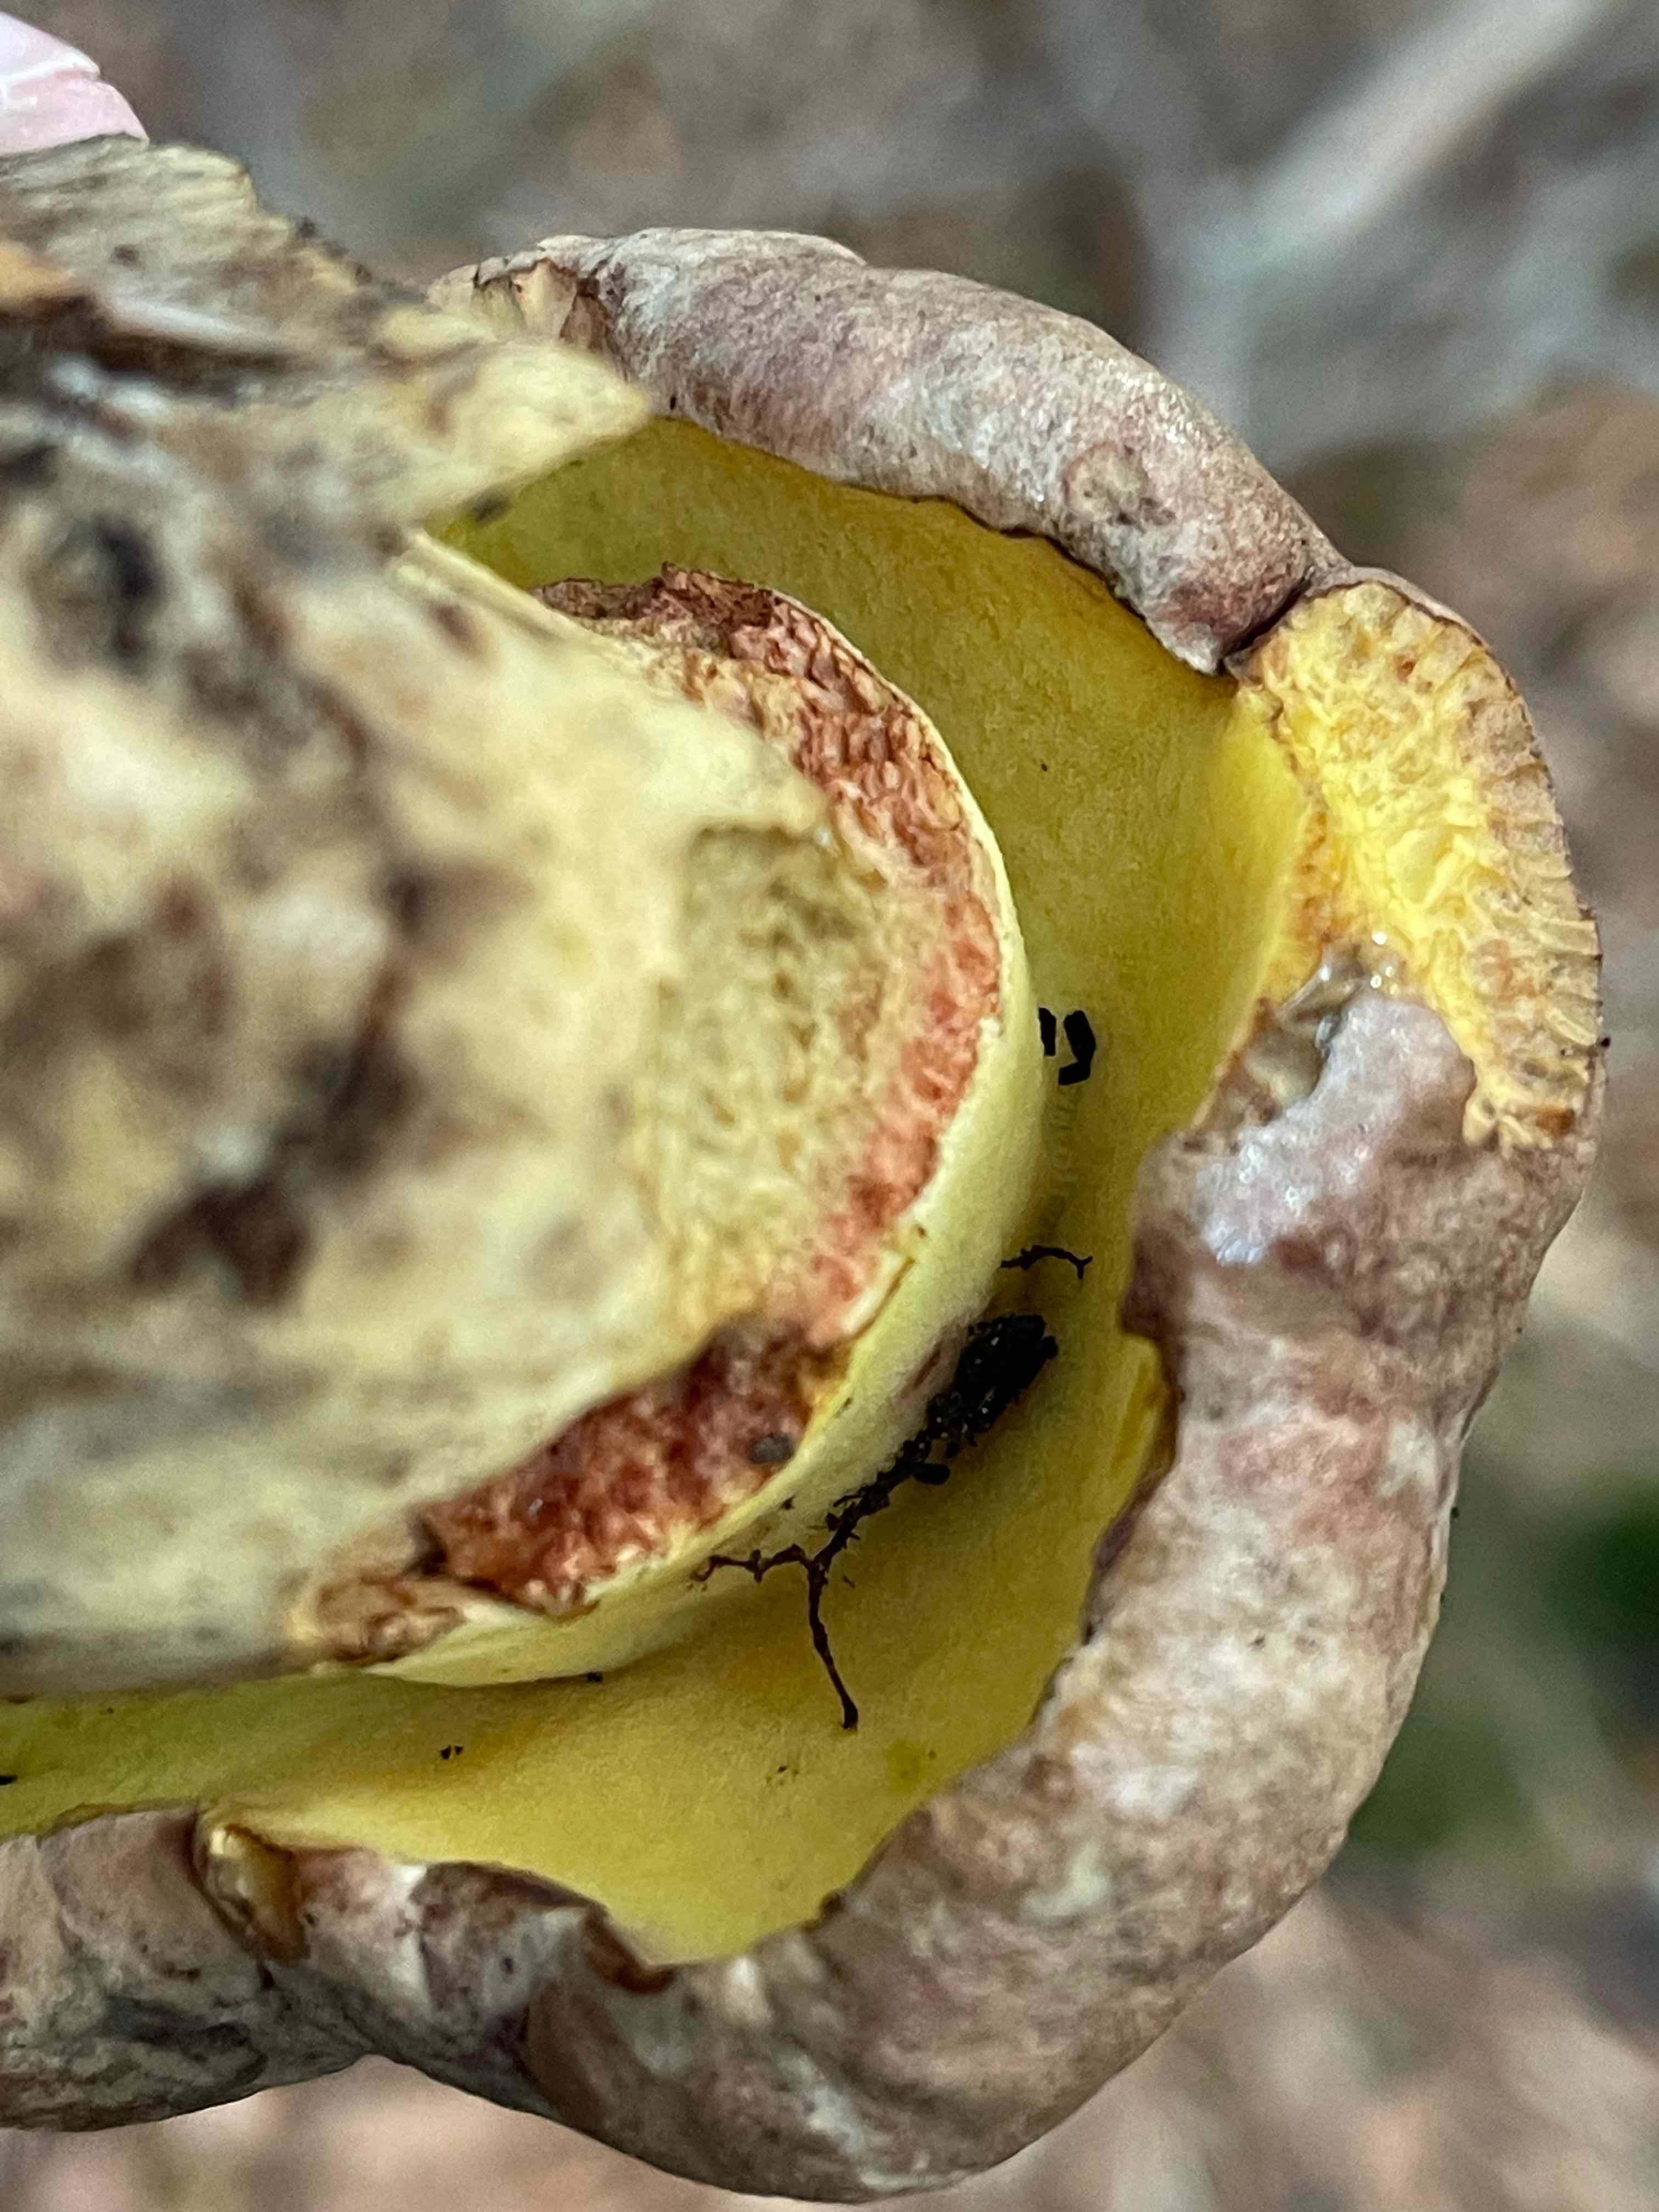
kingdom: Fungi
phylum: Basidiomycota
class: Agaricomycetes
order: Boletales
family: Boletaceae
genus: Butyriboletus
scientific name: Butyriboletus appendiculatus
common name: tenstokket rørhat
